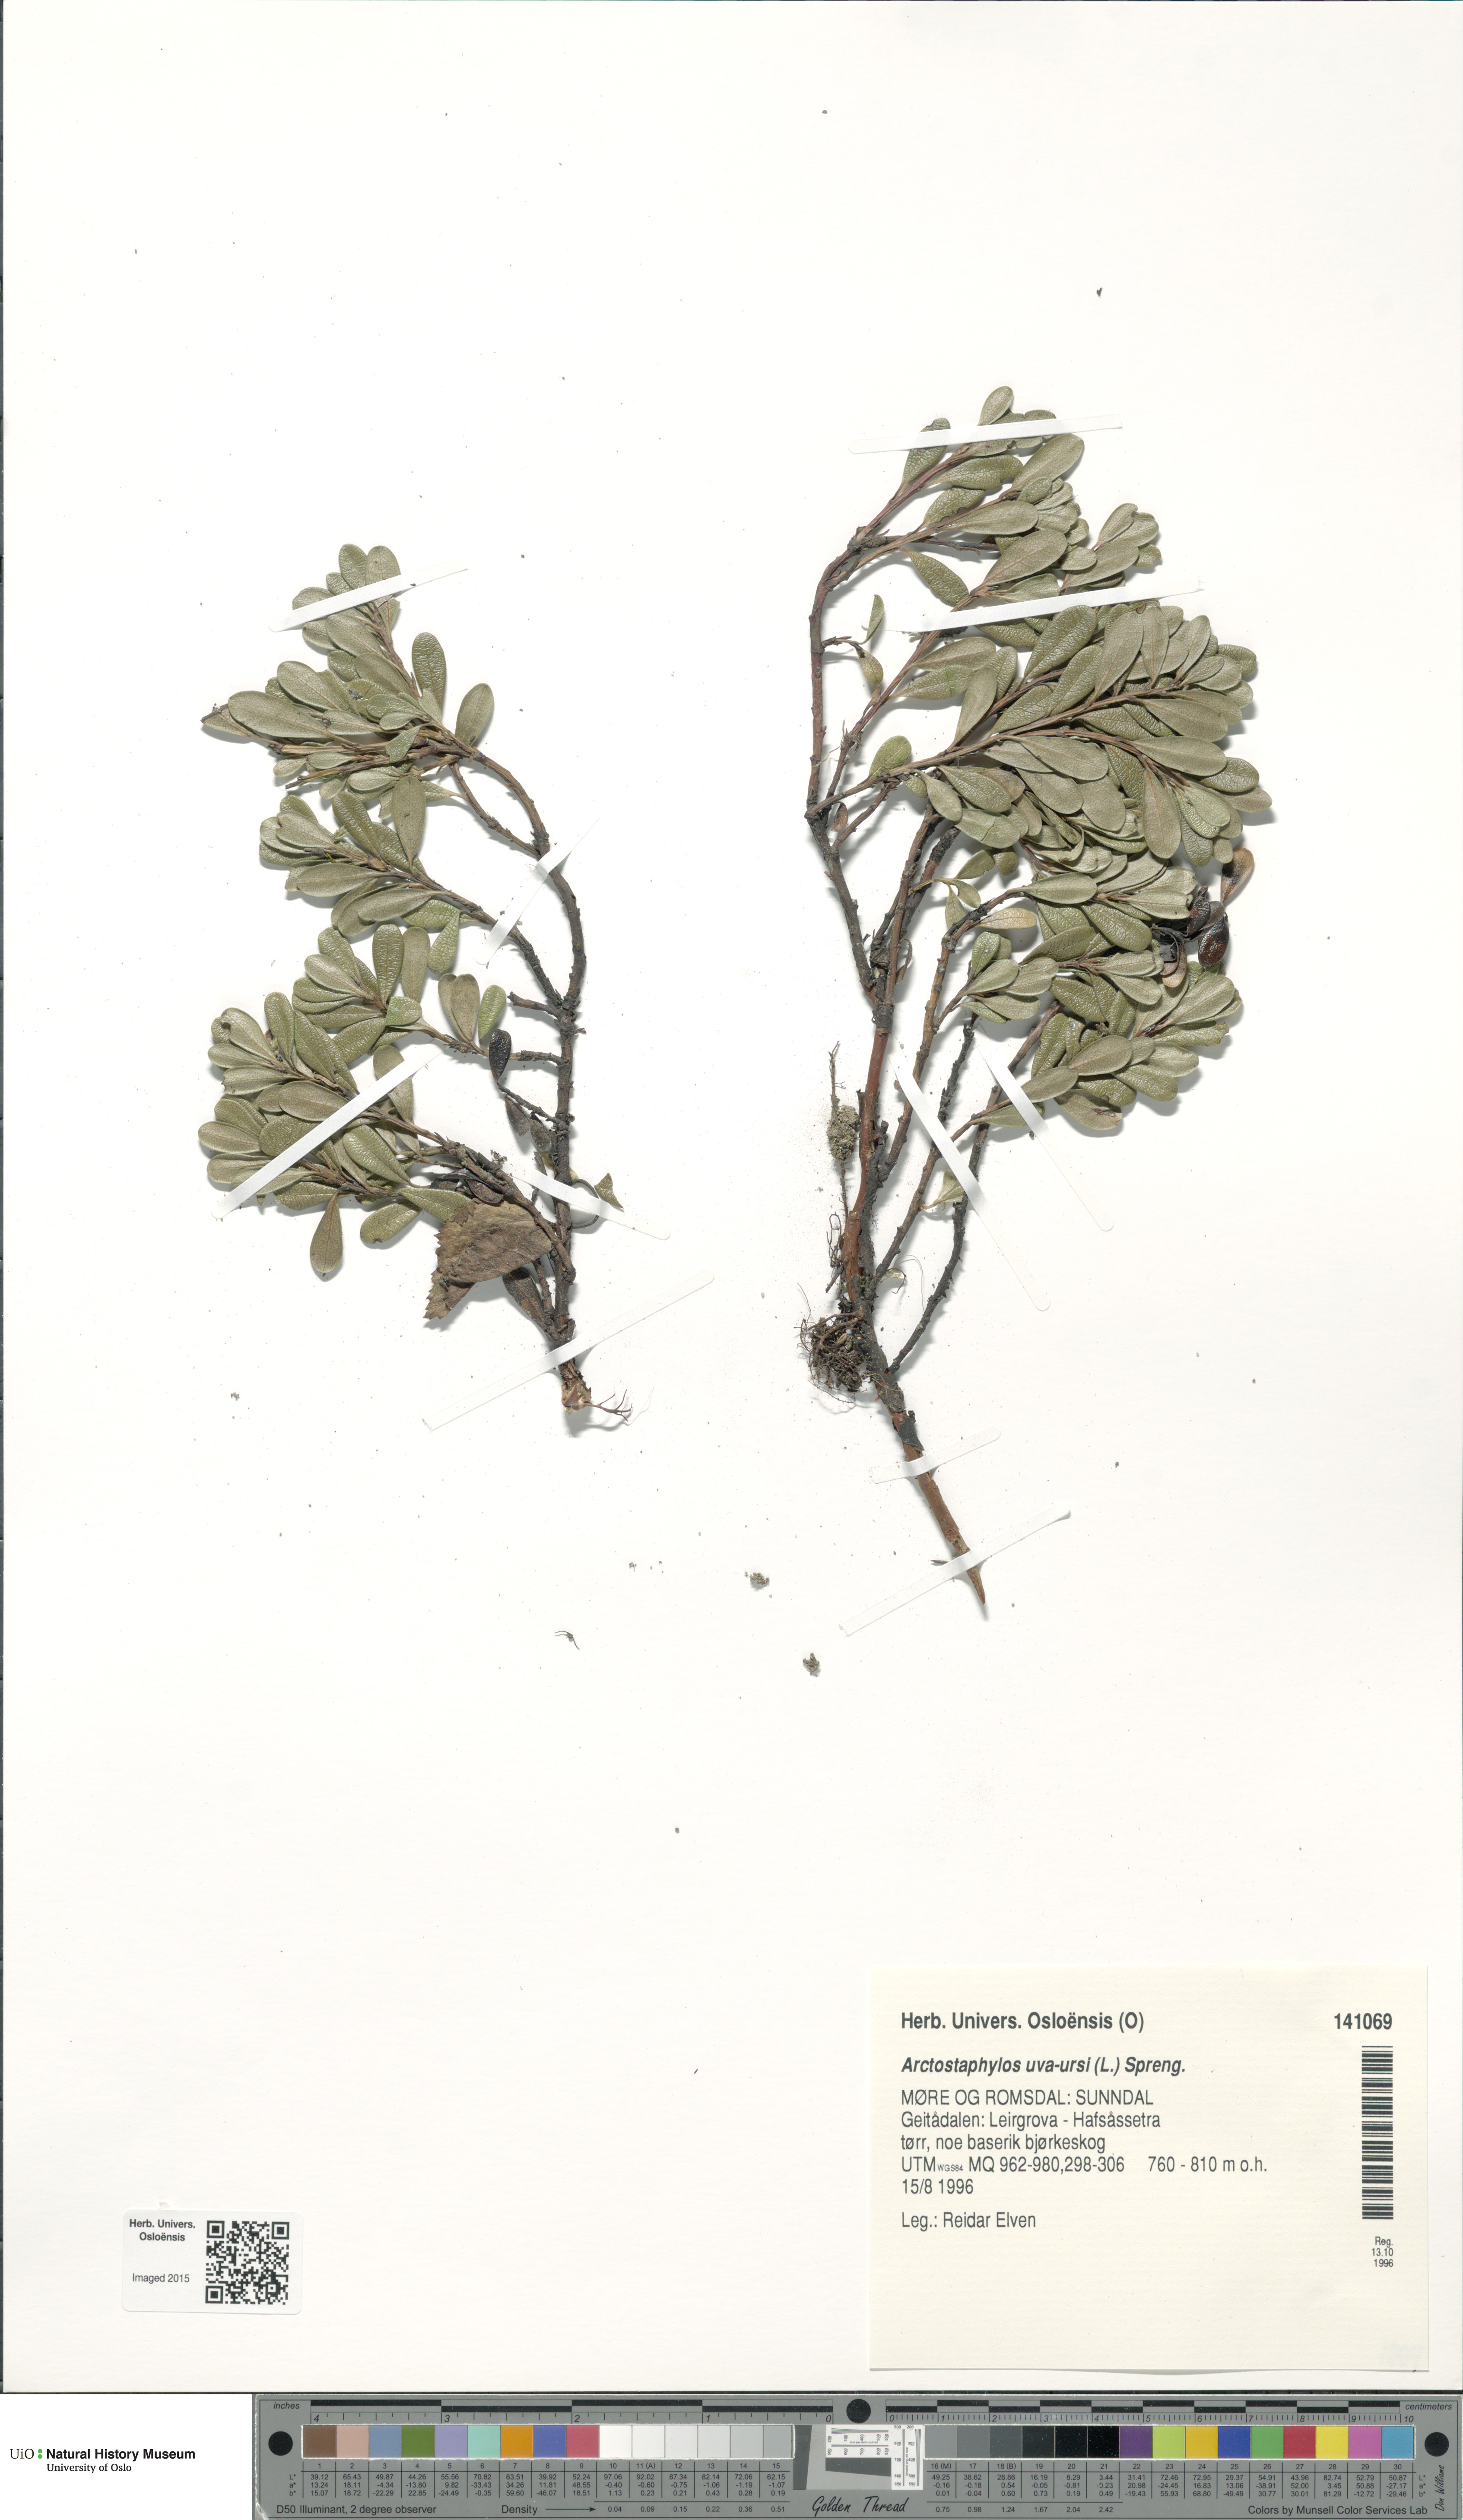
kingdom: Plantae
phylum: Tracheophyta
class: Magnoliopsida
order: Ericales
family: Ericaceae
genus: Arctostaphylos
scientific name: Arctostaphylos uva-ursi
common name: Bearberry
